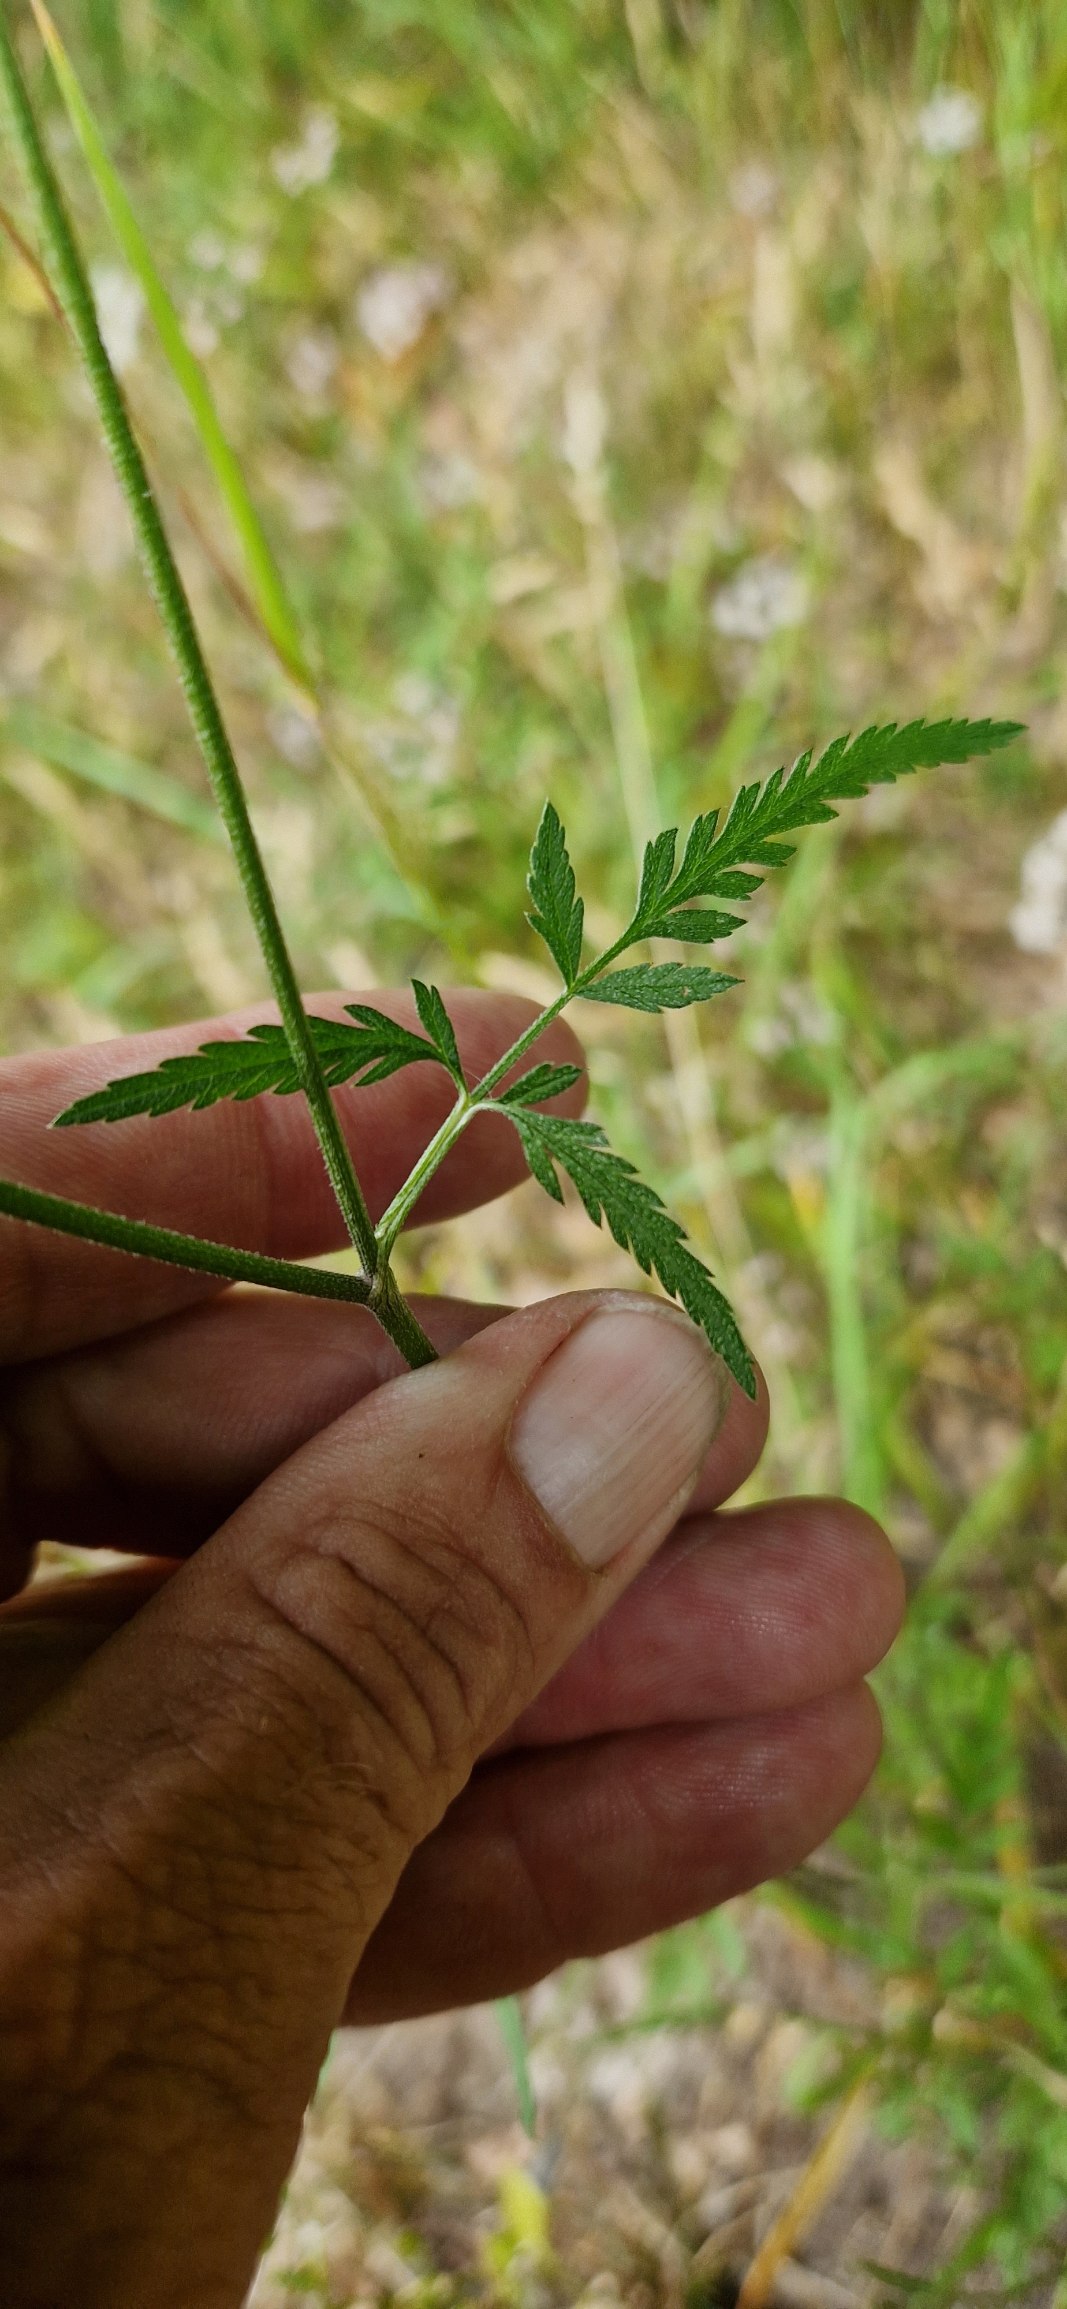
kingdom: Plantae
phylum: Tracheophyta
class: Magnoliopsida
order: Apiales
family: Apiaceae
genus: Torilis
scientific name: Torilis japonica
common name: Hvas randfrø
